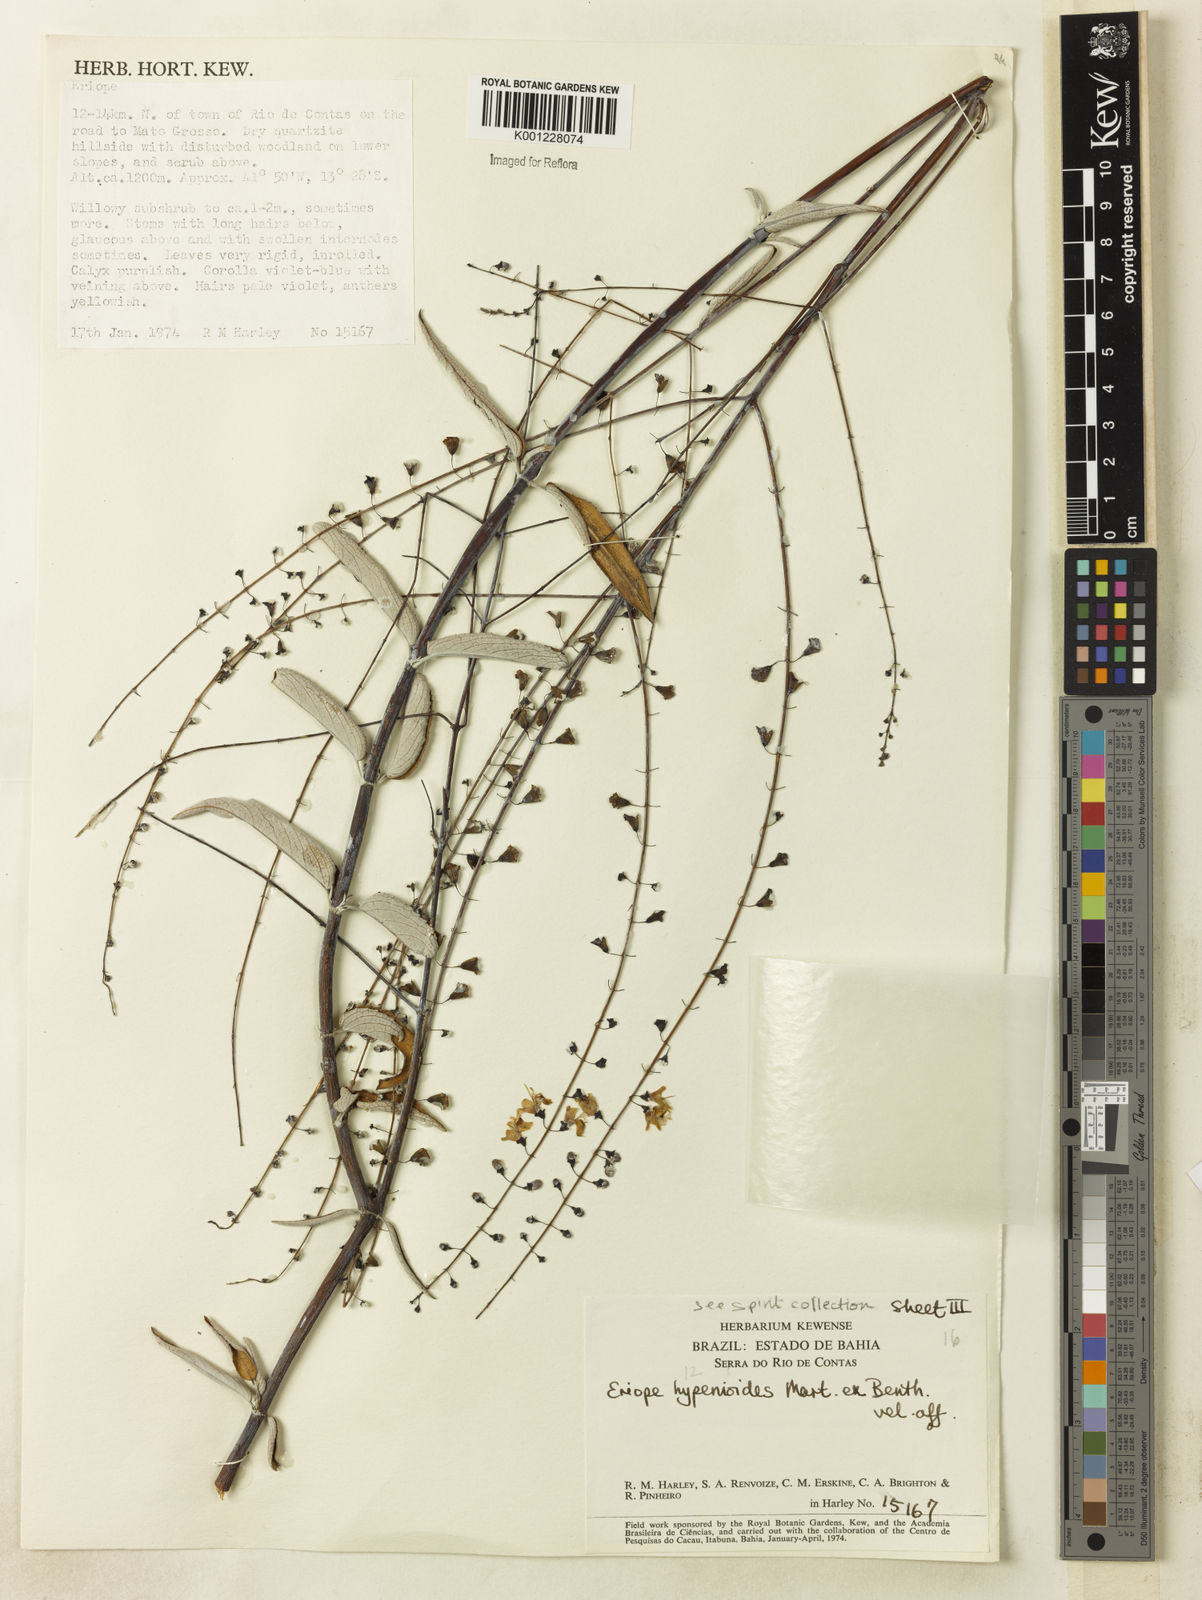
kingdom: Plantae
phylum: Tracheophyta
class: Magnoliopsida
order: Lamiales
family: Lamiaceae
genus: Eriope
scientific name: Eriope hypenioides
